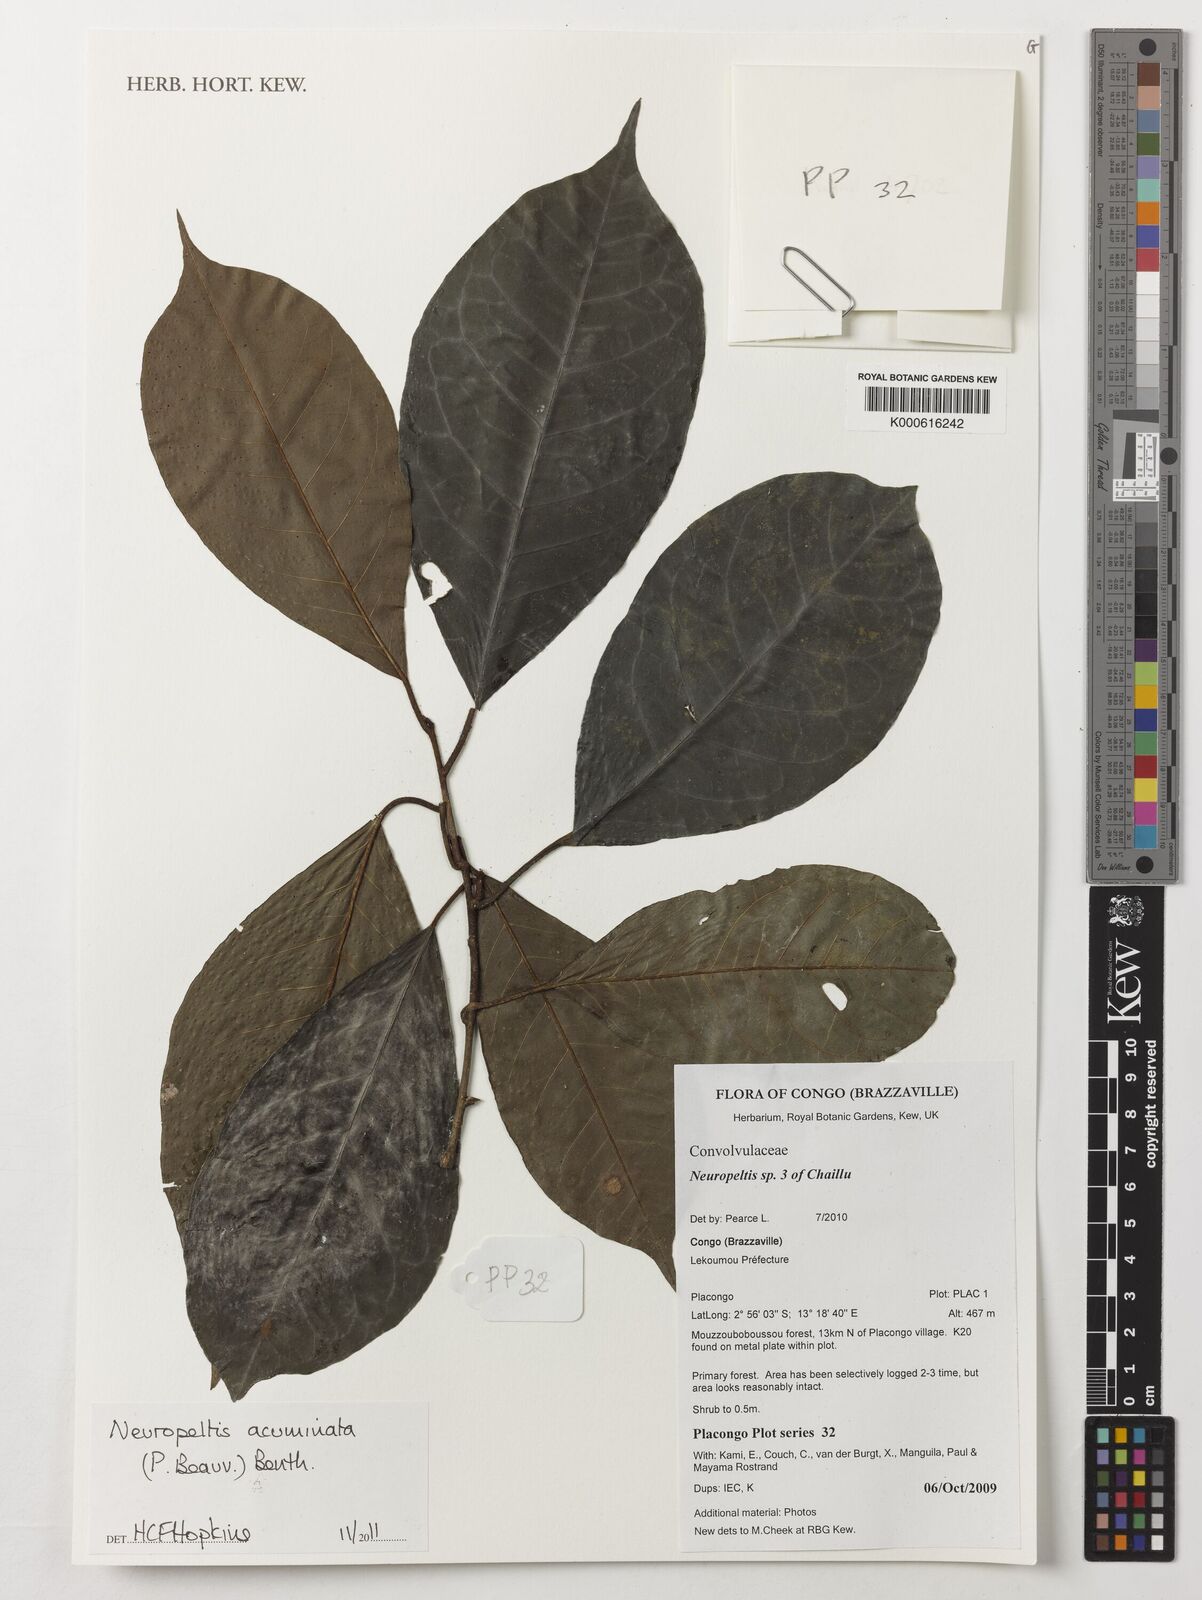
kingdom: Plantae
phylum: Tracheophyta
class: Magnoliopsida
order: Solanales
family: Convolvulaceae
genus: Neuropeltis
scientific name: Neuropeltis acuminata
